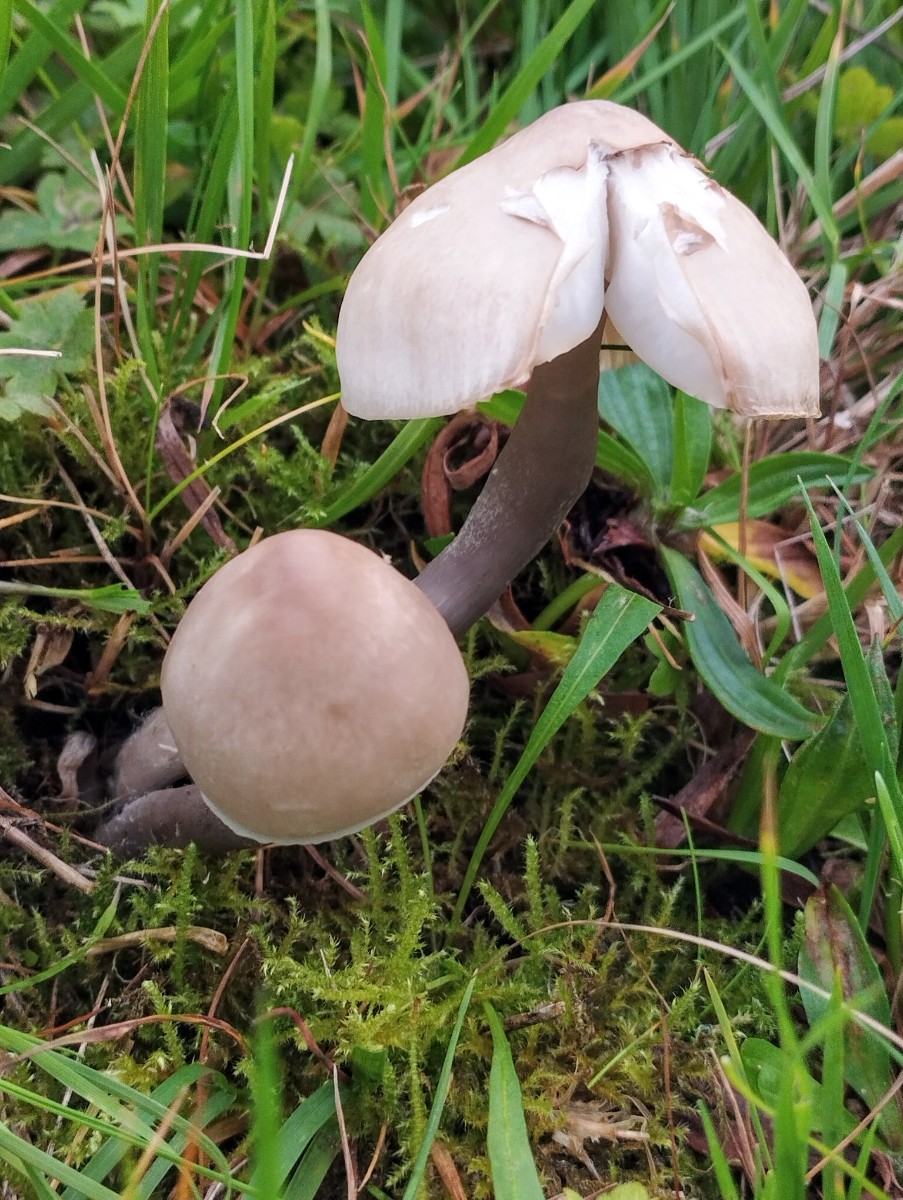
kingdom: Fungi
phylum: Basidiomycota
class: Agaricomycetes
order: Agaricales
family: Mycenaceae
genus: Mycena
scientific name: Mycena luteovariegata
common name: lillagul huesvamp
